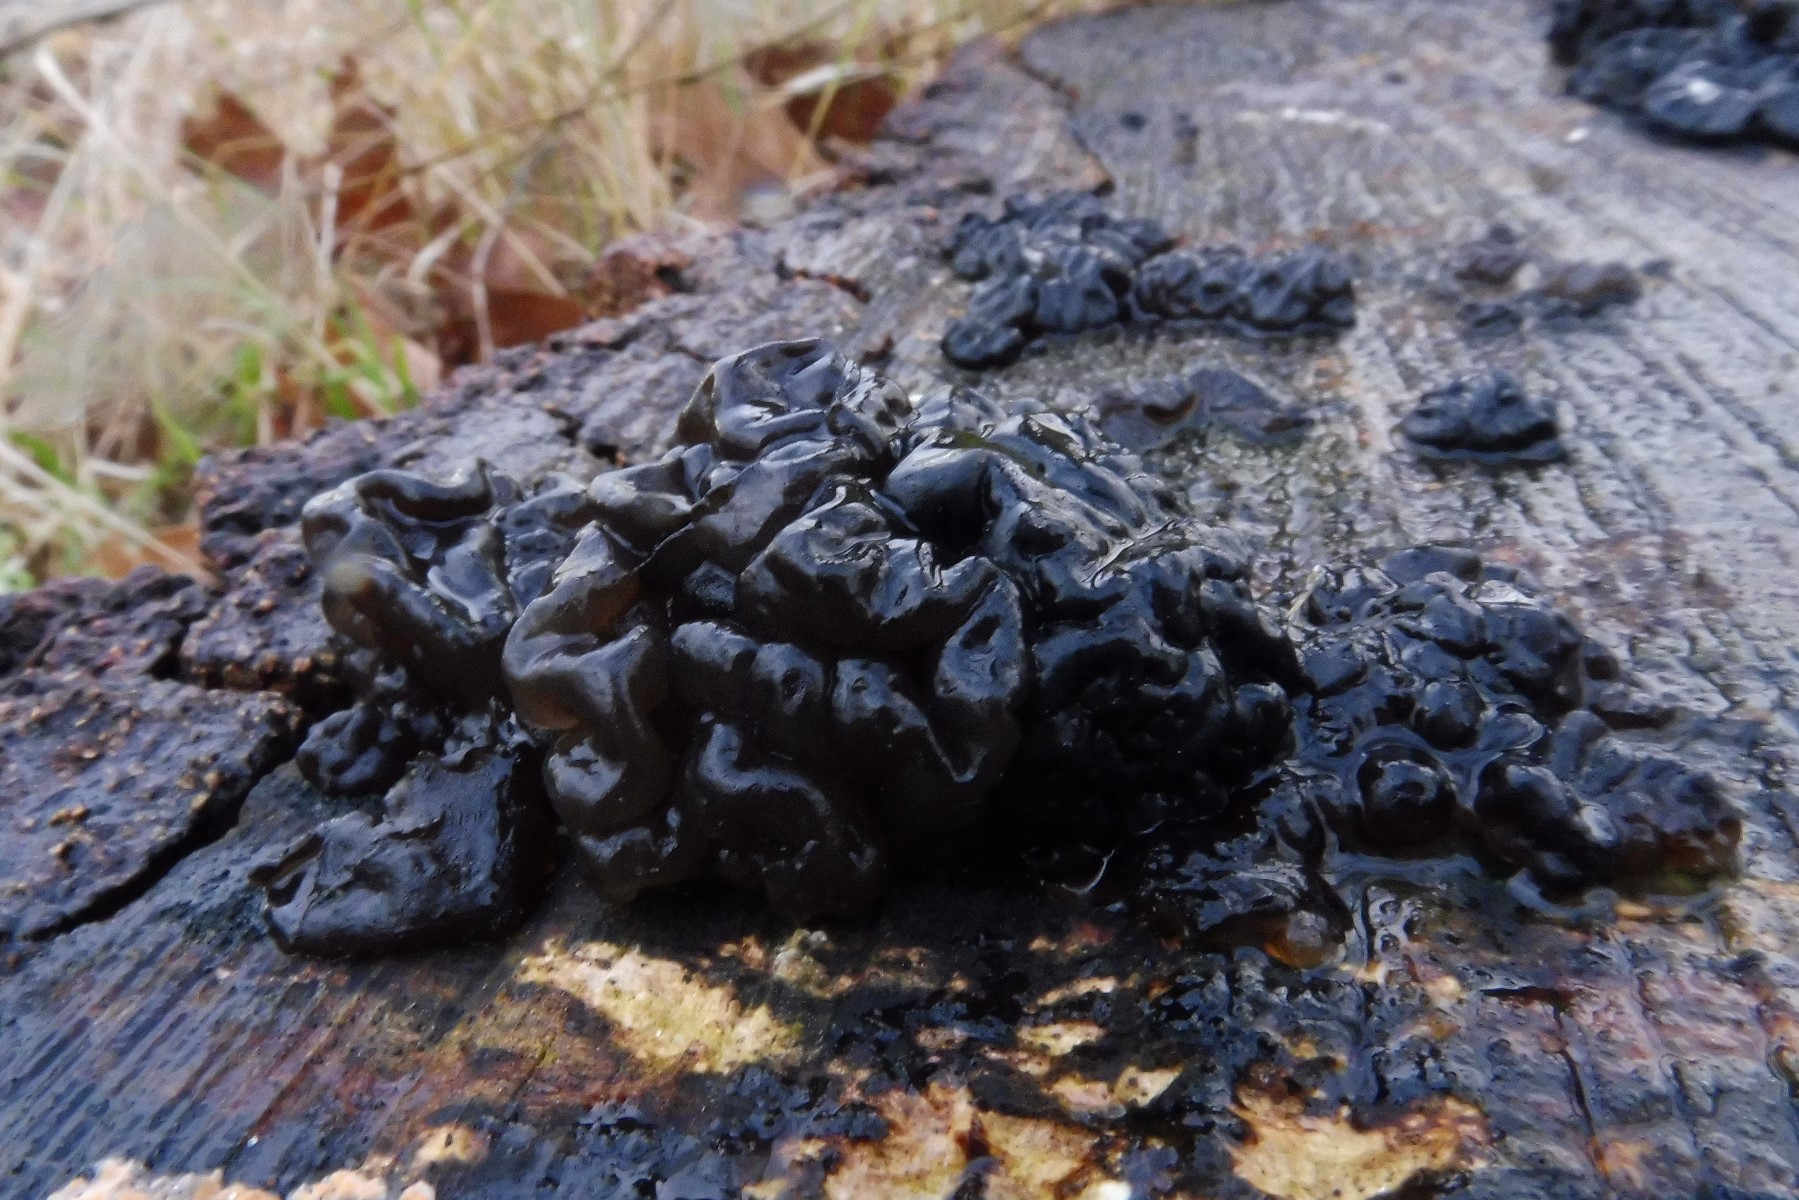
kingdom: Fungi
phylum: Basidiomycota
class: Agaricomycetes
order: Auriculariales
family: Auriculariaceae
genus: Exidia
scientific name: Exidia nigricans
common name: almindelig bævretop
